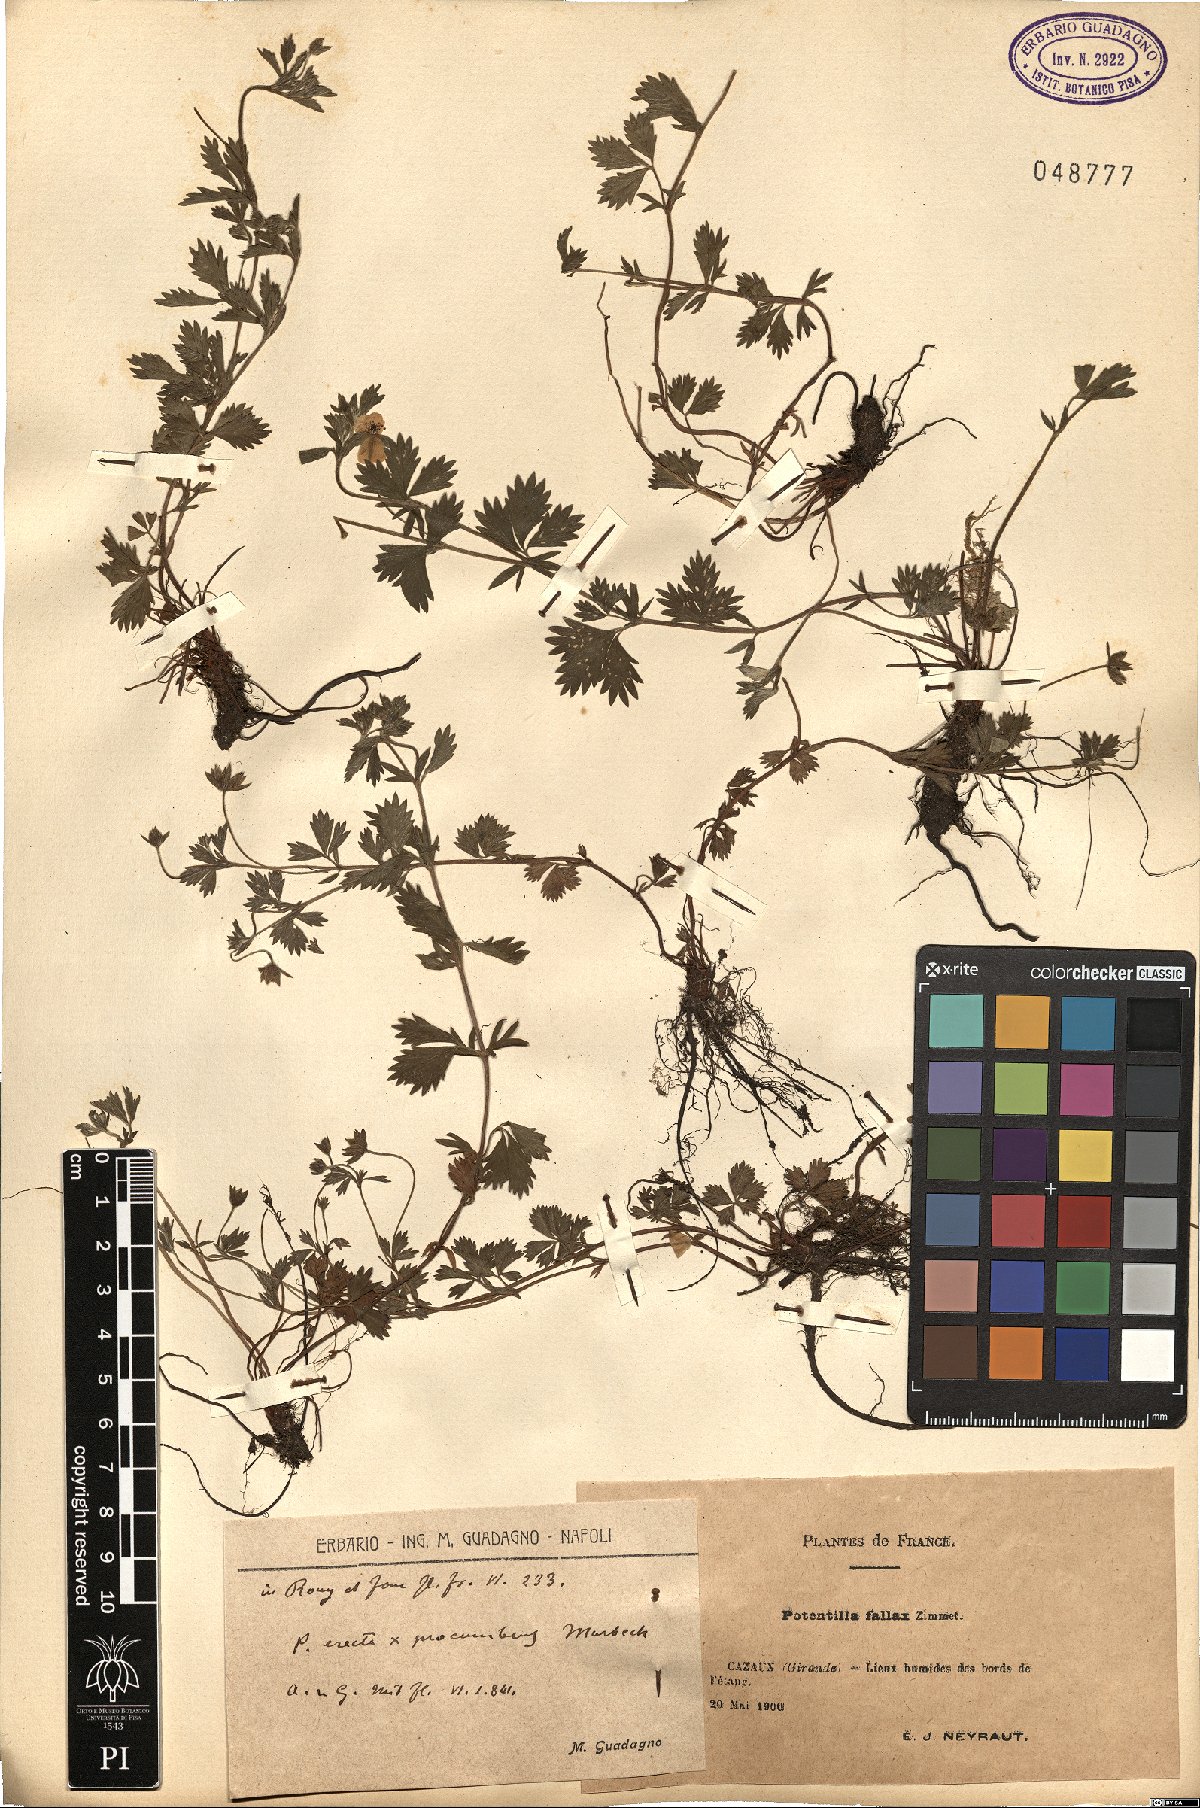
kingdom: Plantae
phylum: Tracheophyta
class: Magnoliopsida
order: Rosales
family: Rosaceae
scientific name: Rosaceae
